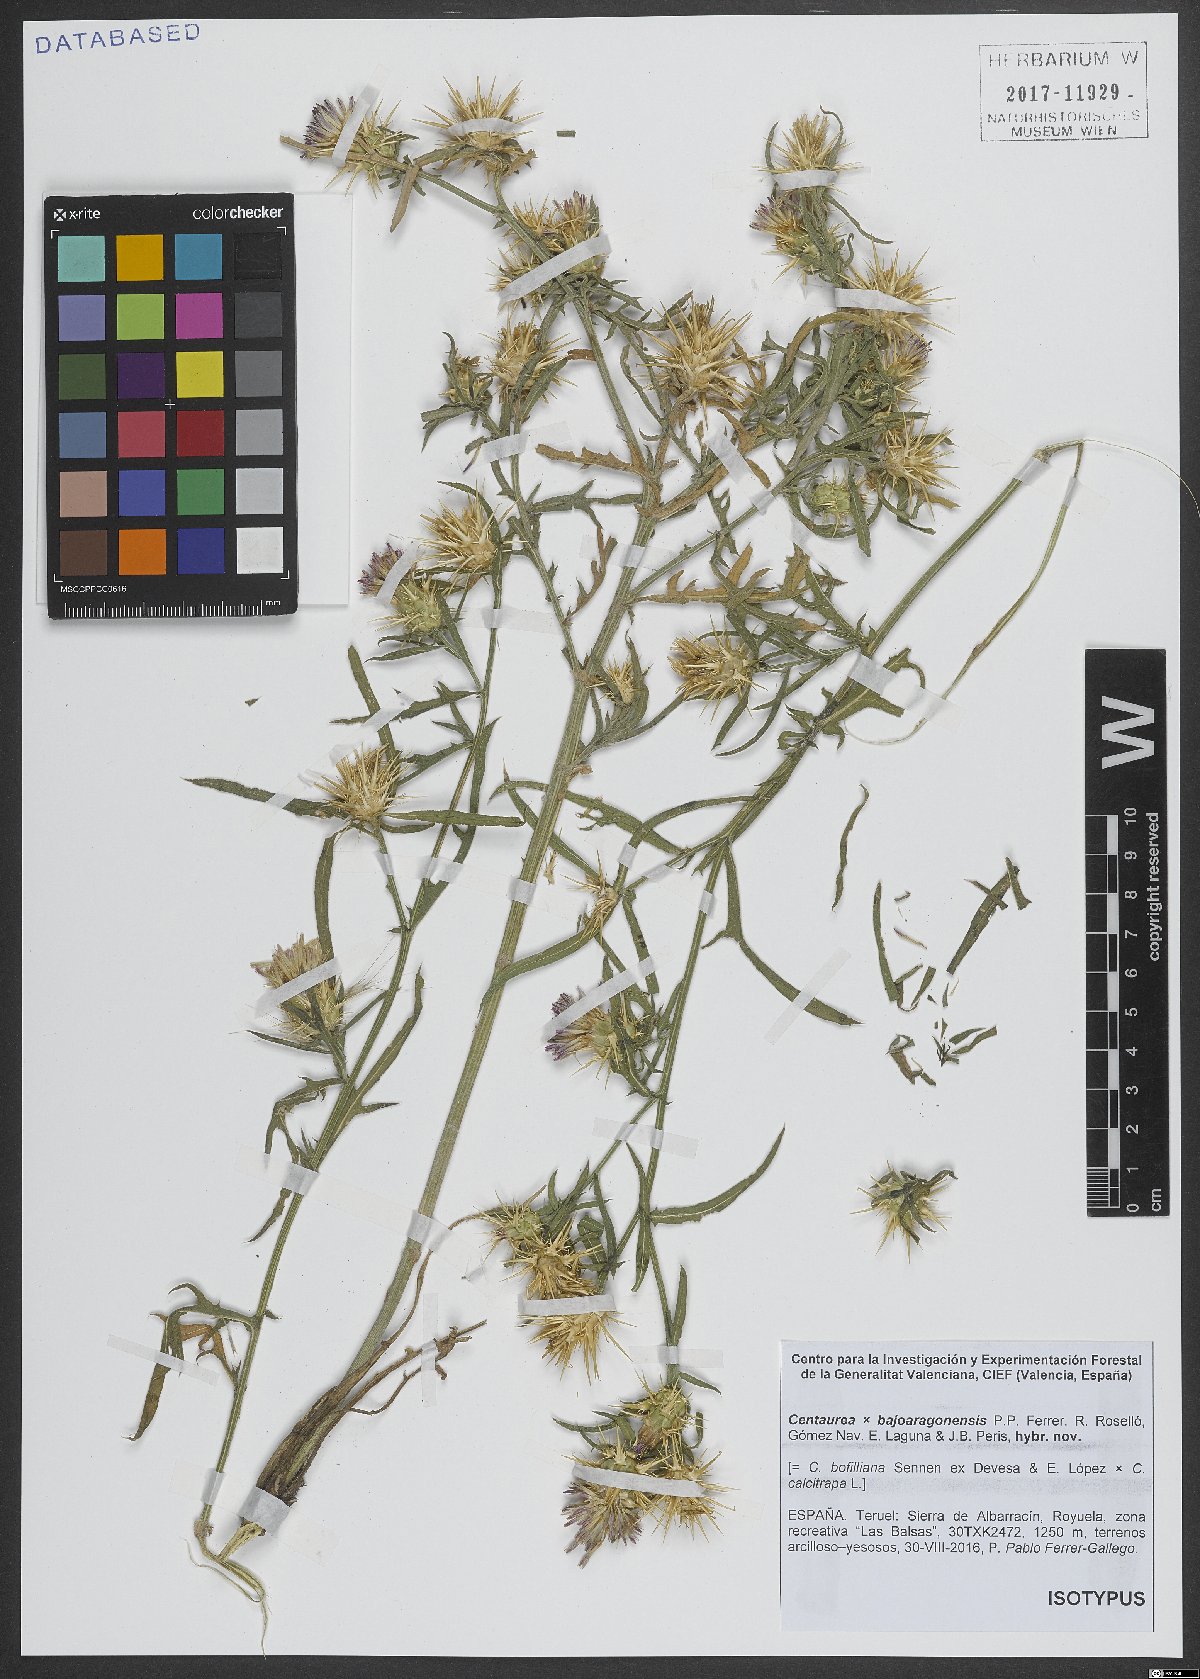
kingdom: Plantae
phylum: Tracheophyta
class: Magnoliopsida
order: Asterales
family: Asteraceae
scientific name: Asteraceae
